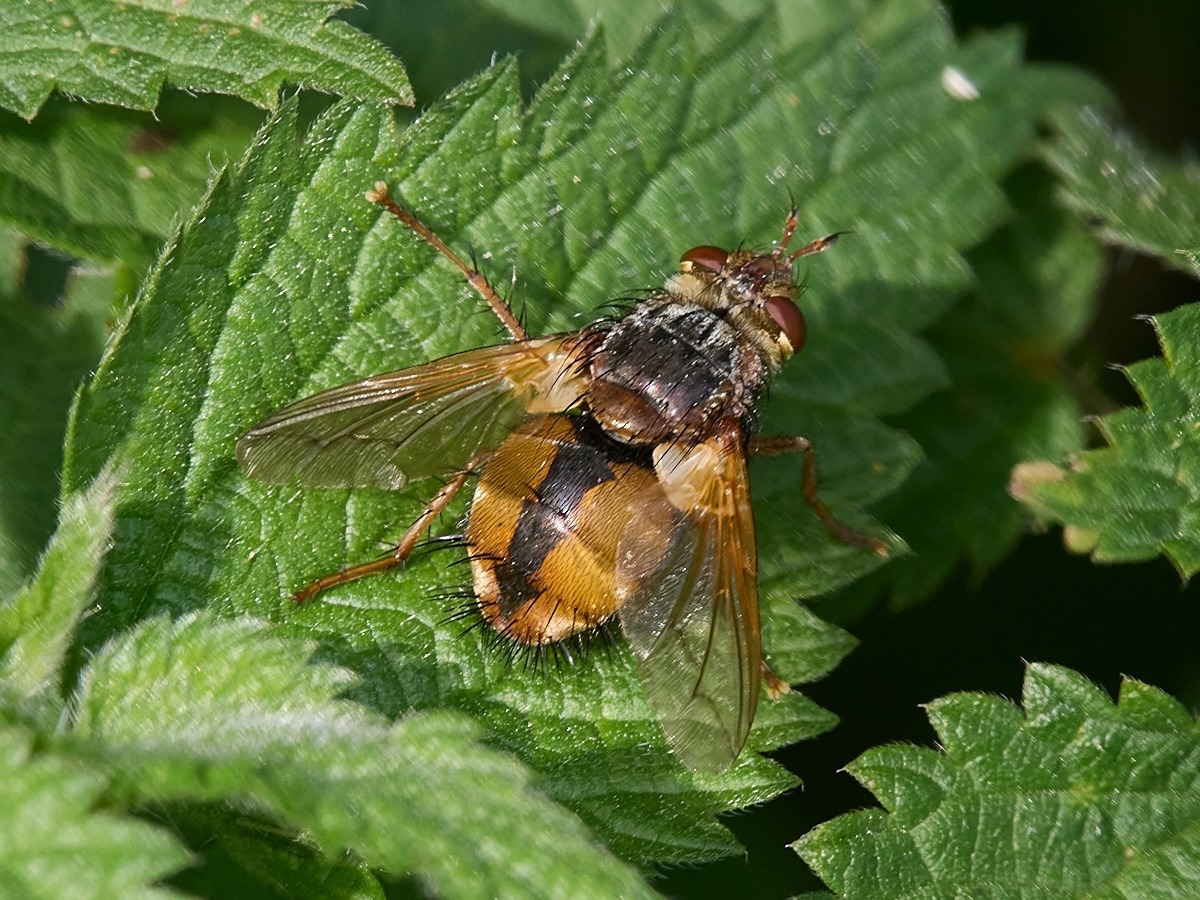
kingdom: Animalia
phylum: Arthropoda
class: Insecta
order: Diptera
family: Tachinidae
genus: Tachina
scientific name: Tachina fera
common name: Mellemfluen oskar
